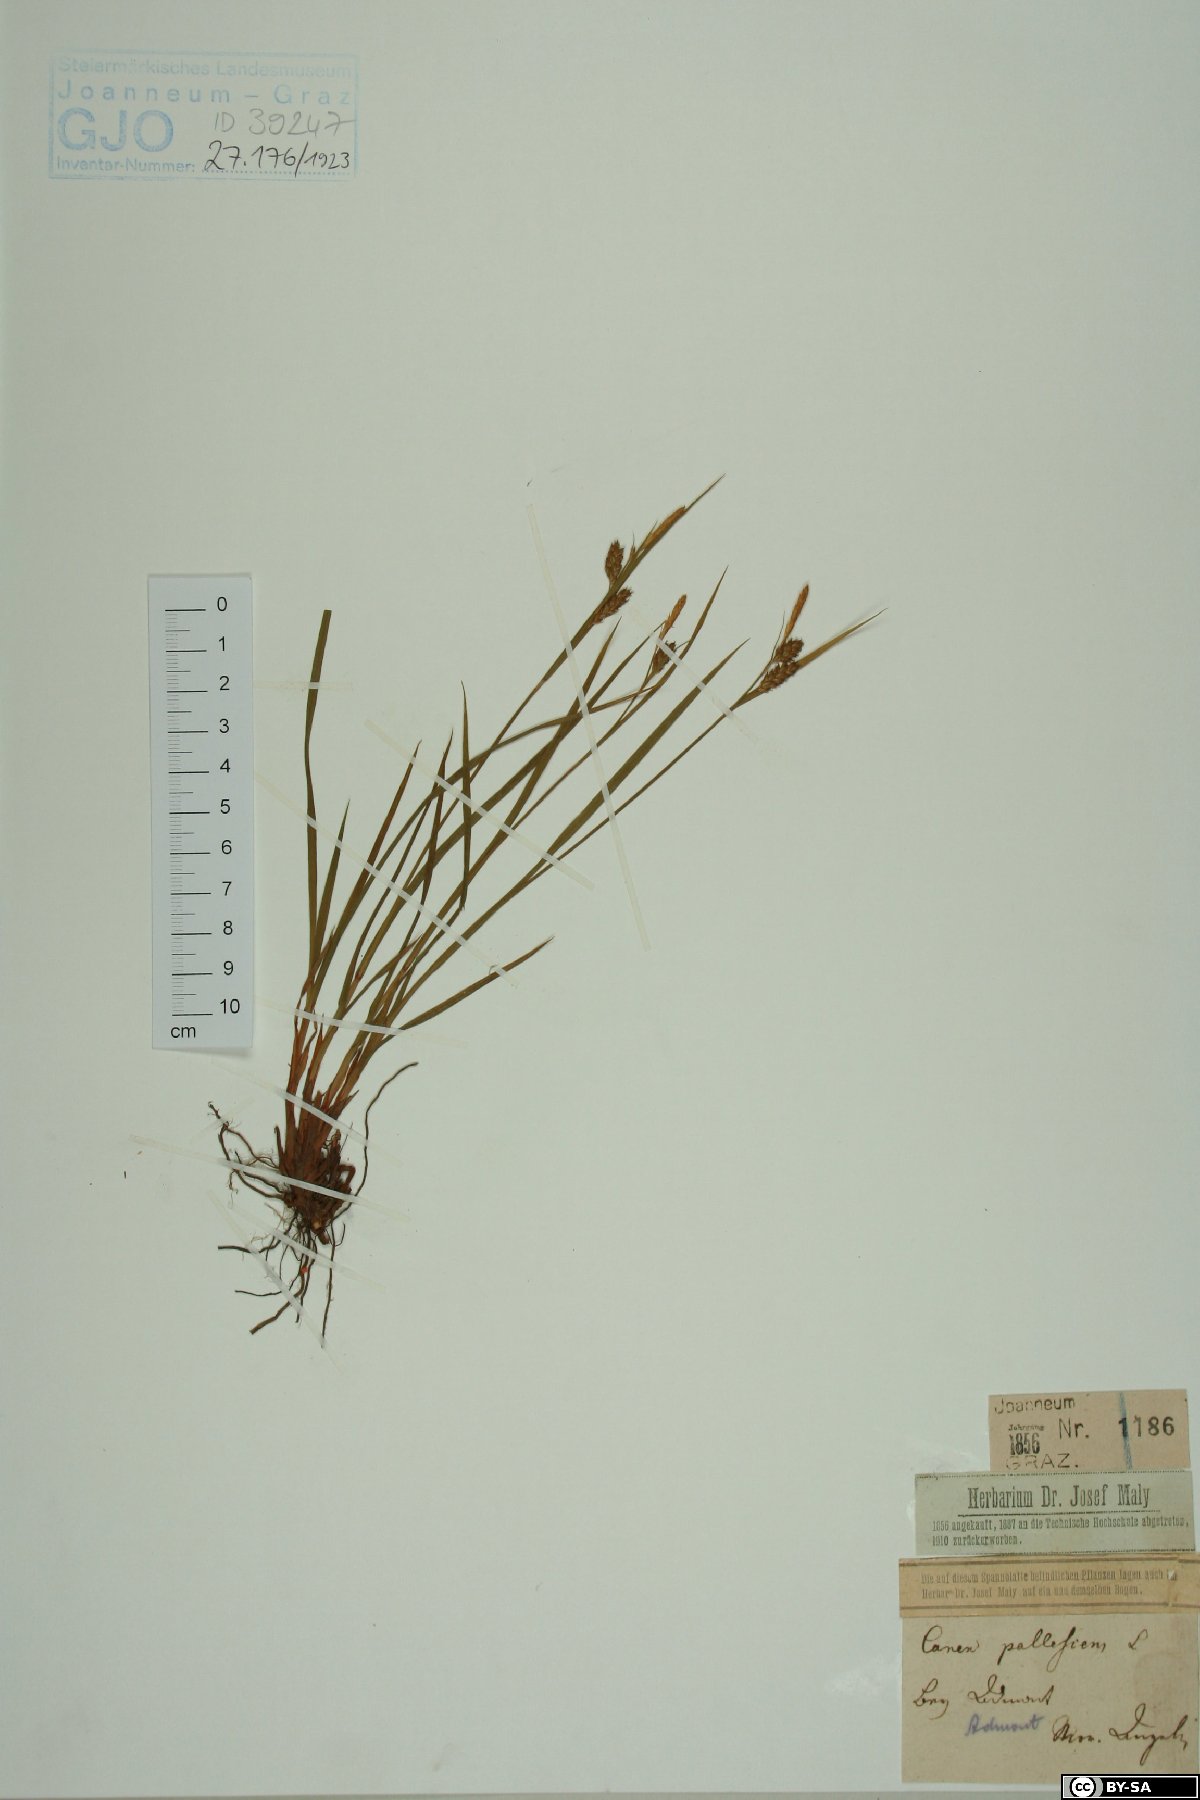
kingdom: Plantae
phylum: Tracheophyta
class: Liliopsida
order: Poales
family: Cyperaceae
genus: Carex
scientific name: Carex pallescens
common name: Pale sedge
